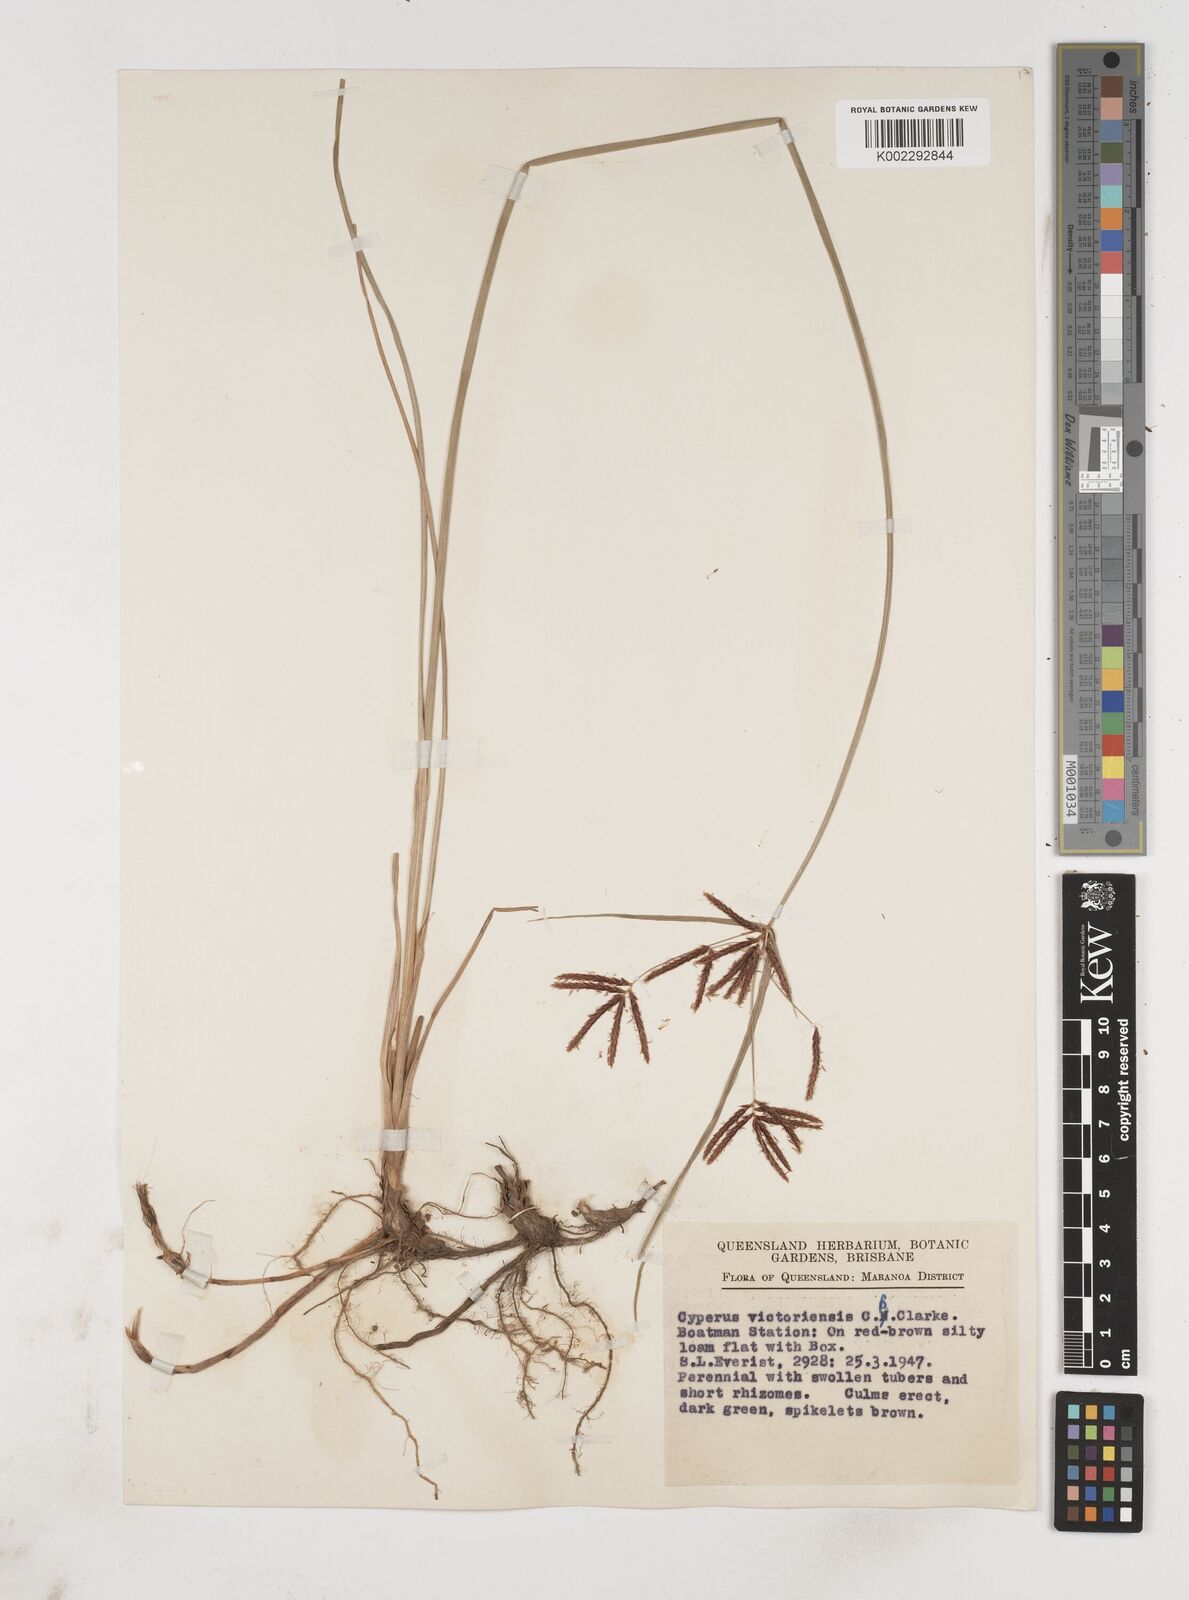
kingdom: Plantae
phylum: Tracheophyta
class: Liliopsida
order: Poales
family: Cyperaceae
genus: Cyperus
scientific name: Cyperus victoriensis
